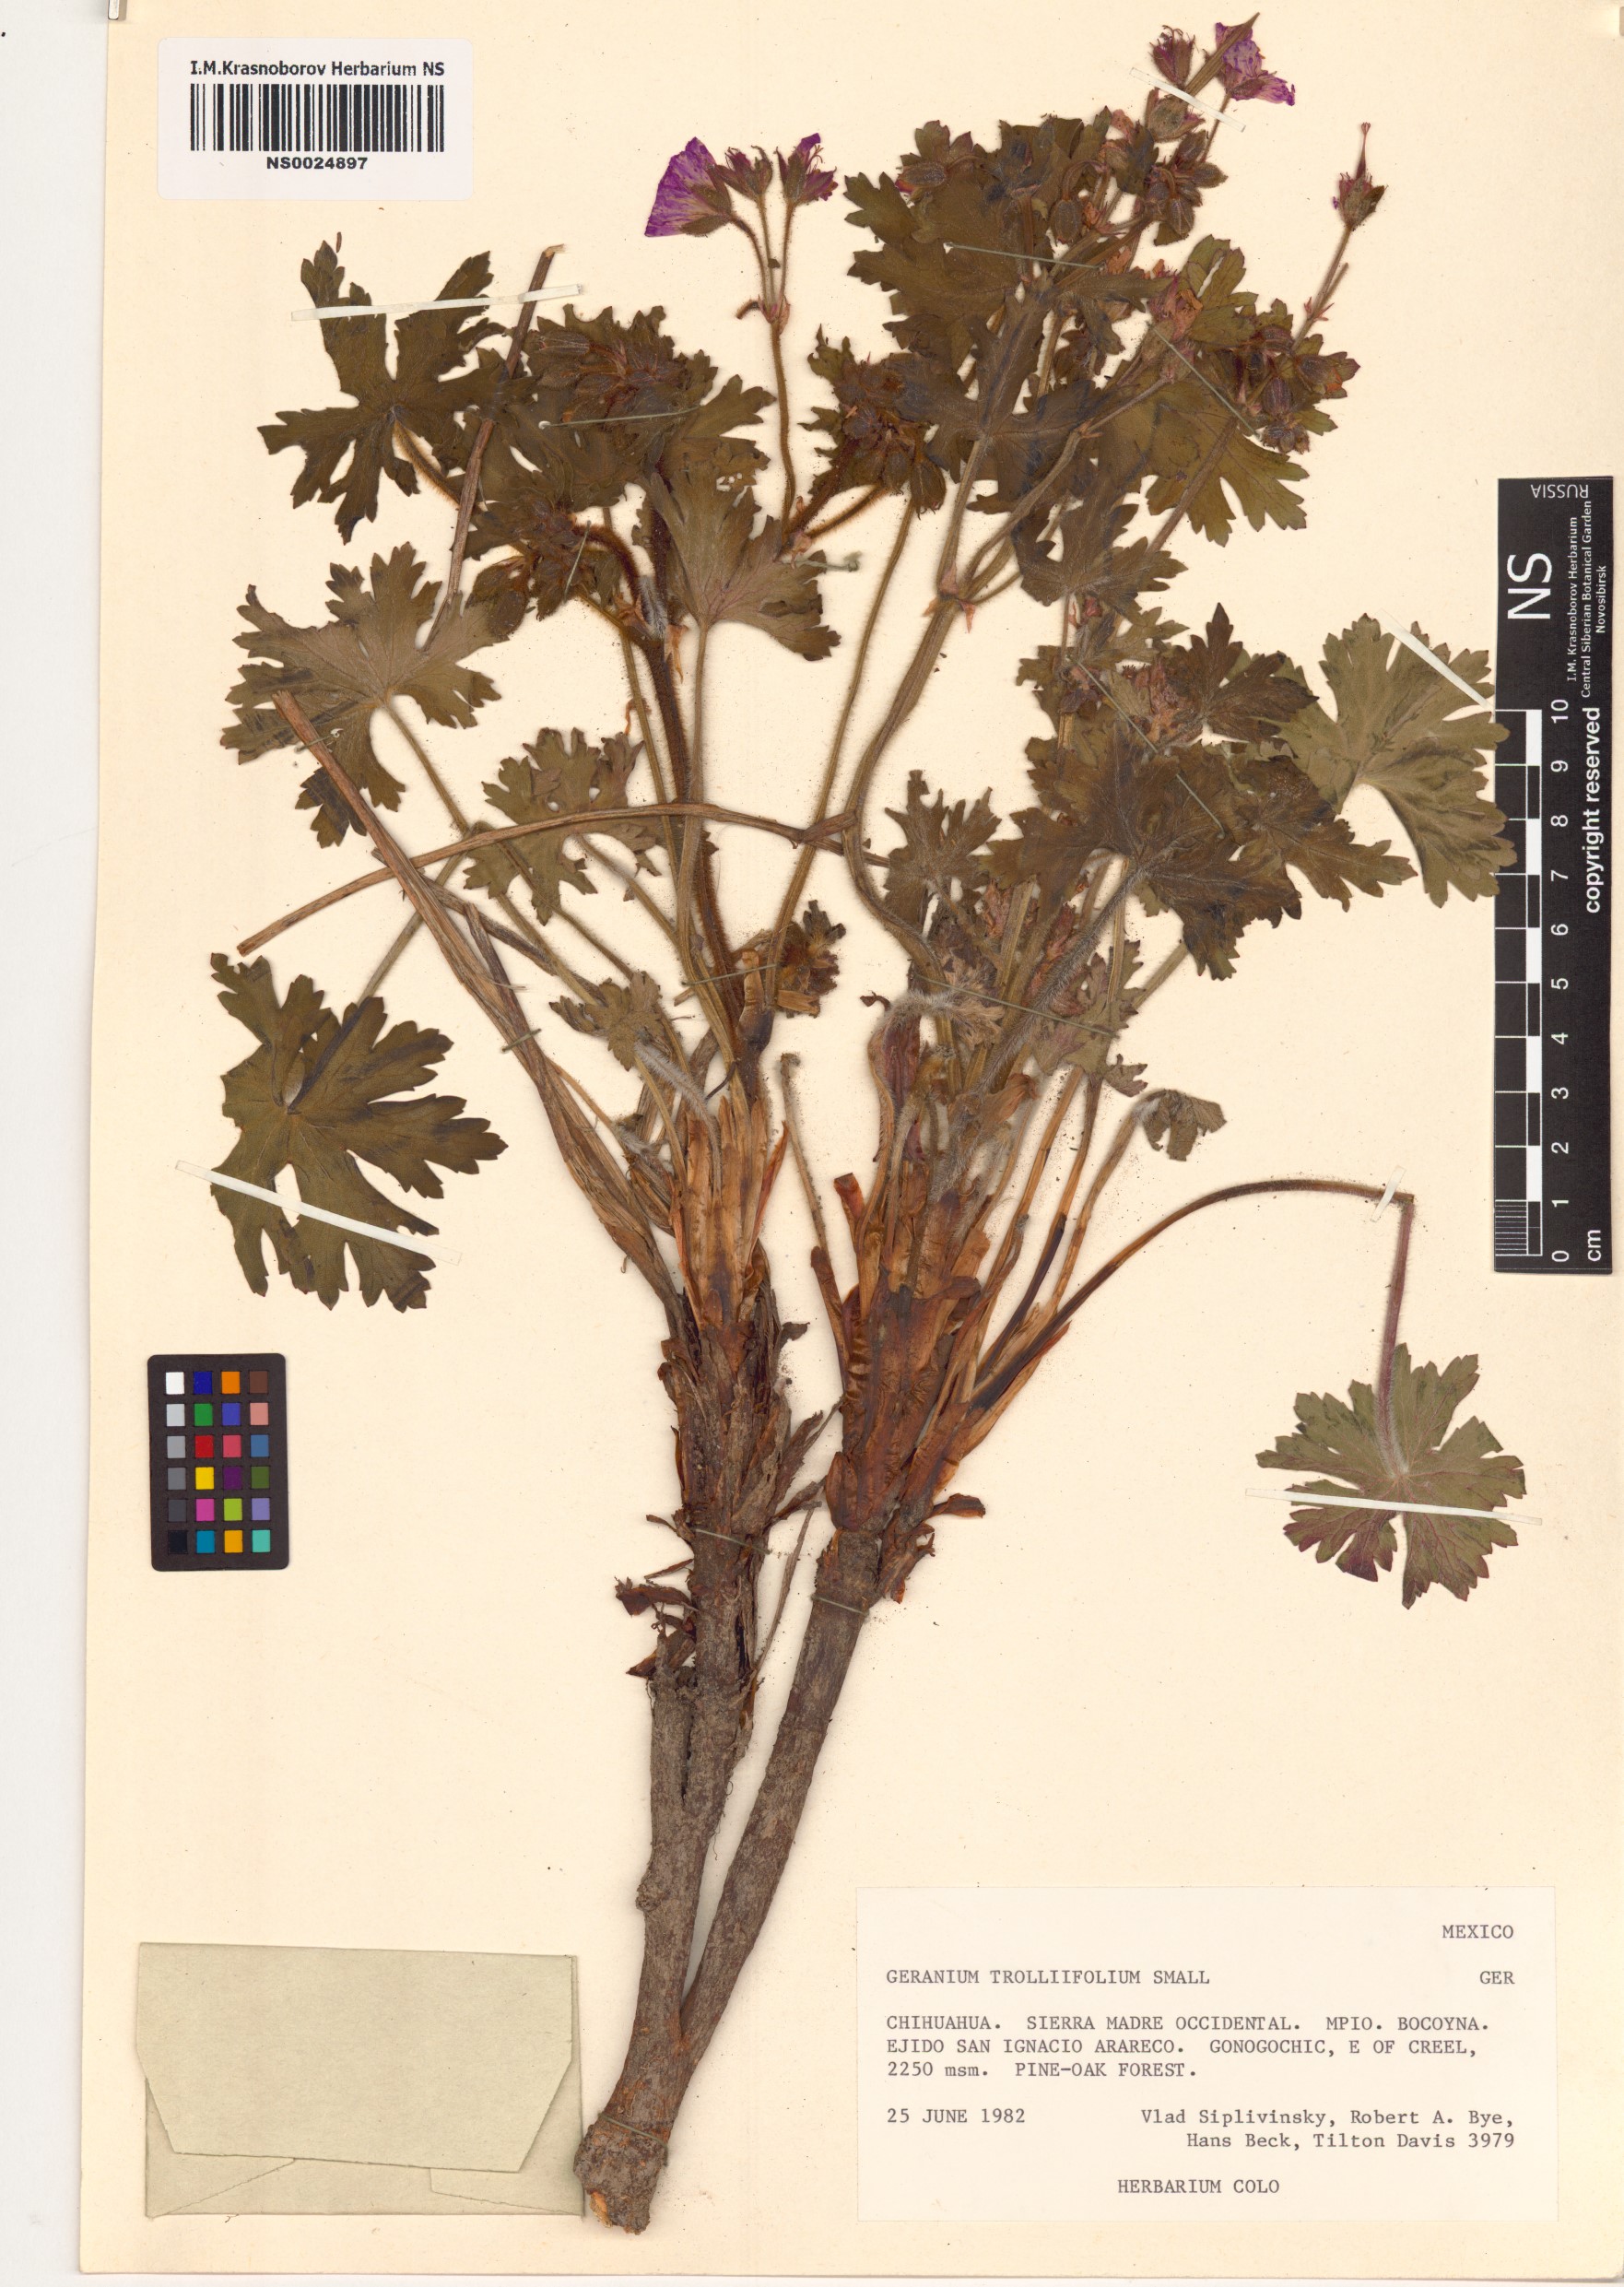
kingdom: Plantae
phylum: Tracheophyta
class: Magnoliopsida
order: Geraniales
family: Geraniaceae
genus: Geranium
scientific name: Geranium trolliifolium
